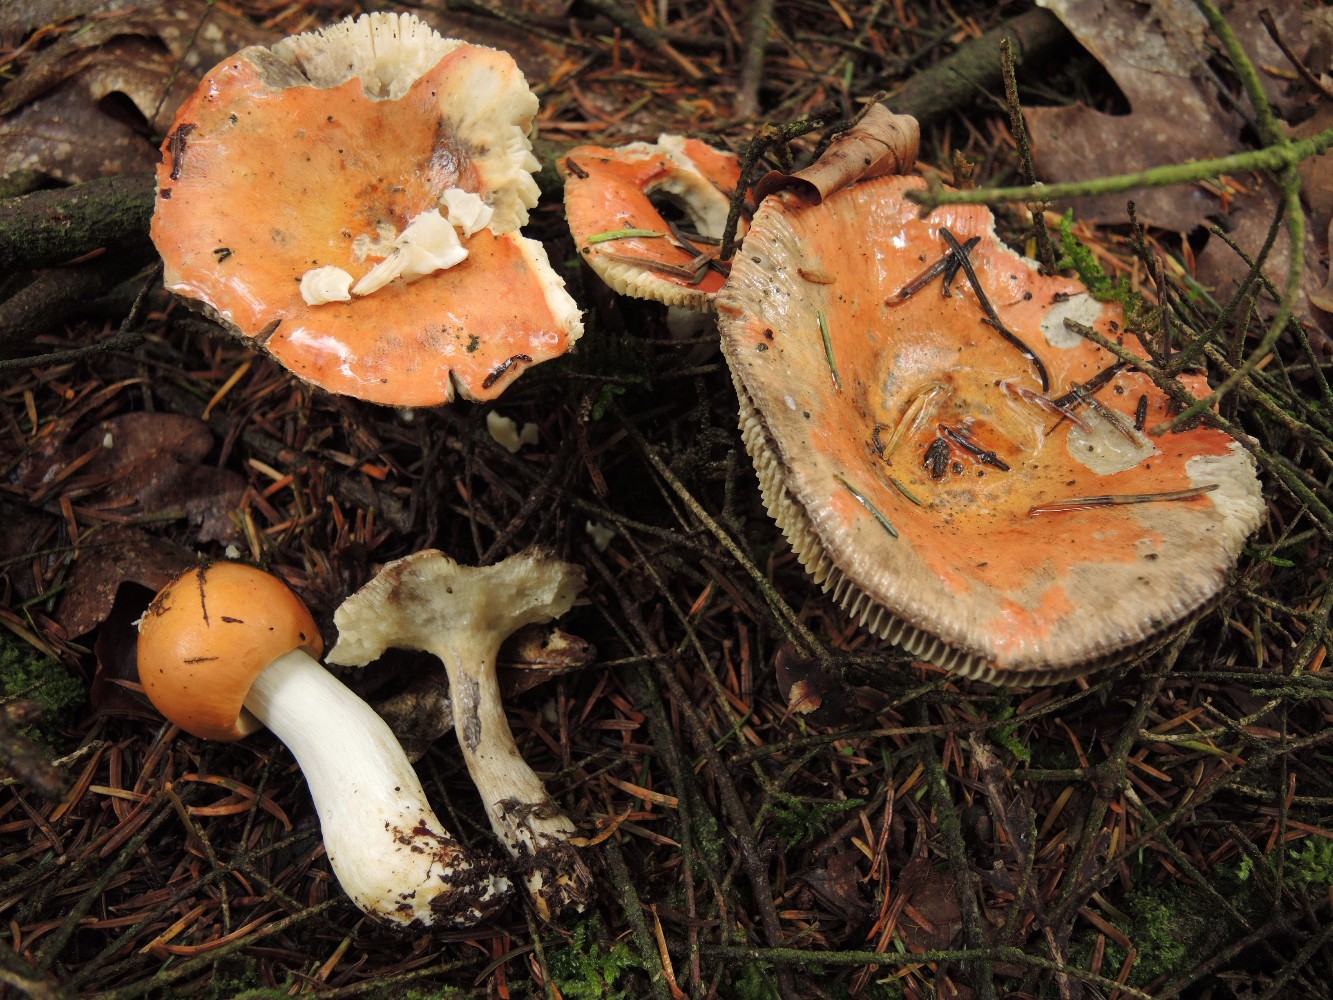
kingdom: Fungi
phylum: Basidiomycota
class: Agaricomycetes
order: Russulales
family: Russulaceae
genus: Russula
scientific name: Russula decolorans
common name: afblegende skørhat
